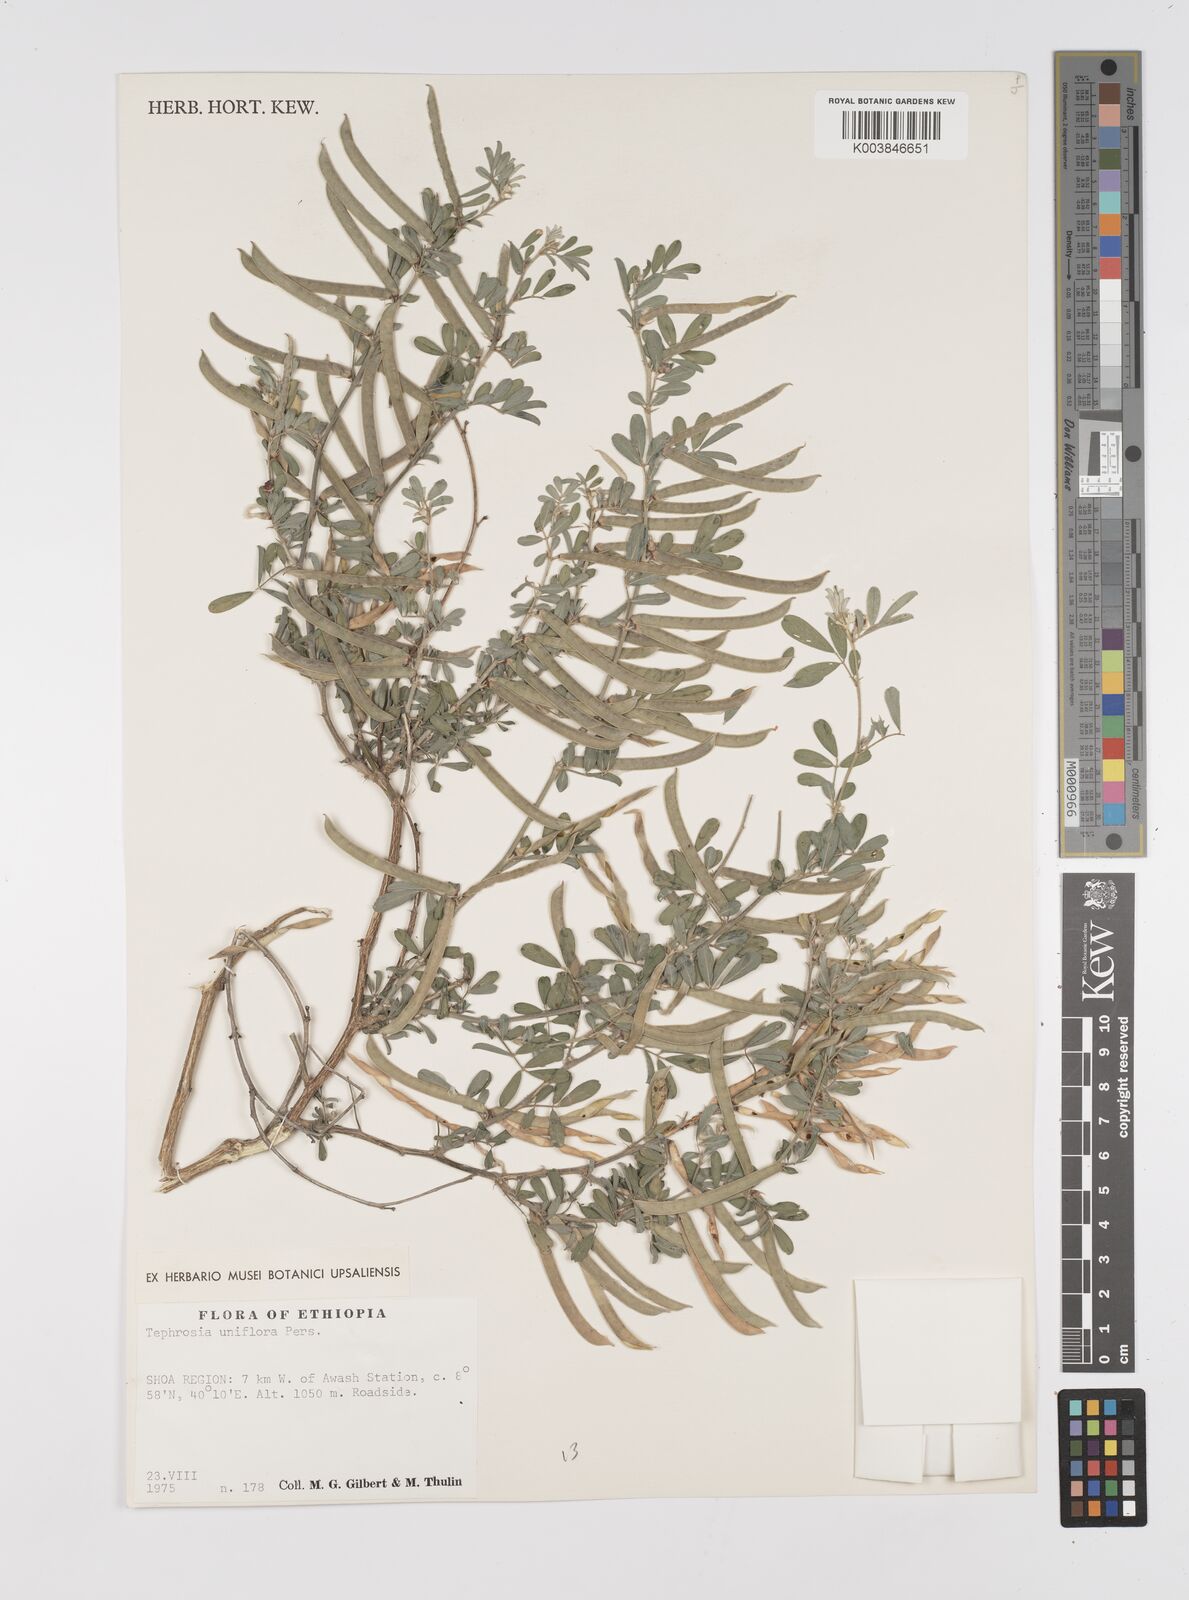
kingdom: Plantae
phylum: Tracheophyta
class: Magnoliopsida
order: Fabales
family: Fabaceae
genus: Tephrosia
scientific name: Tephrosia uniflora
